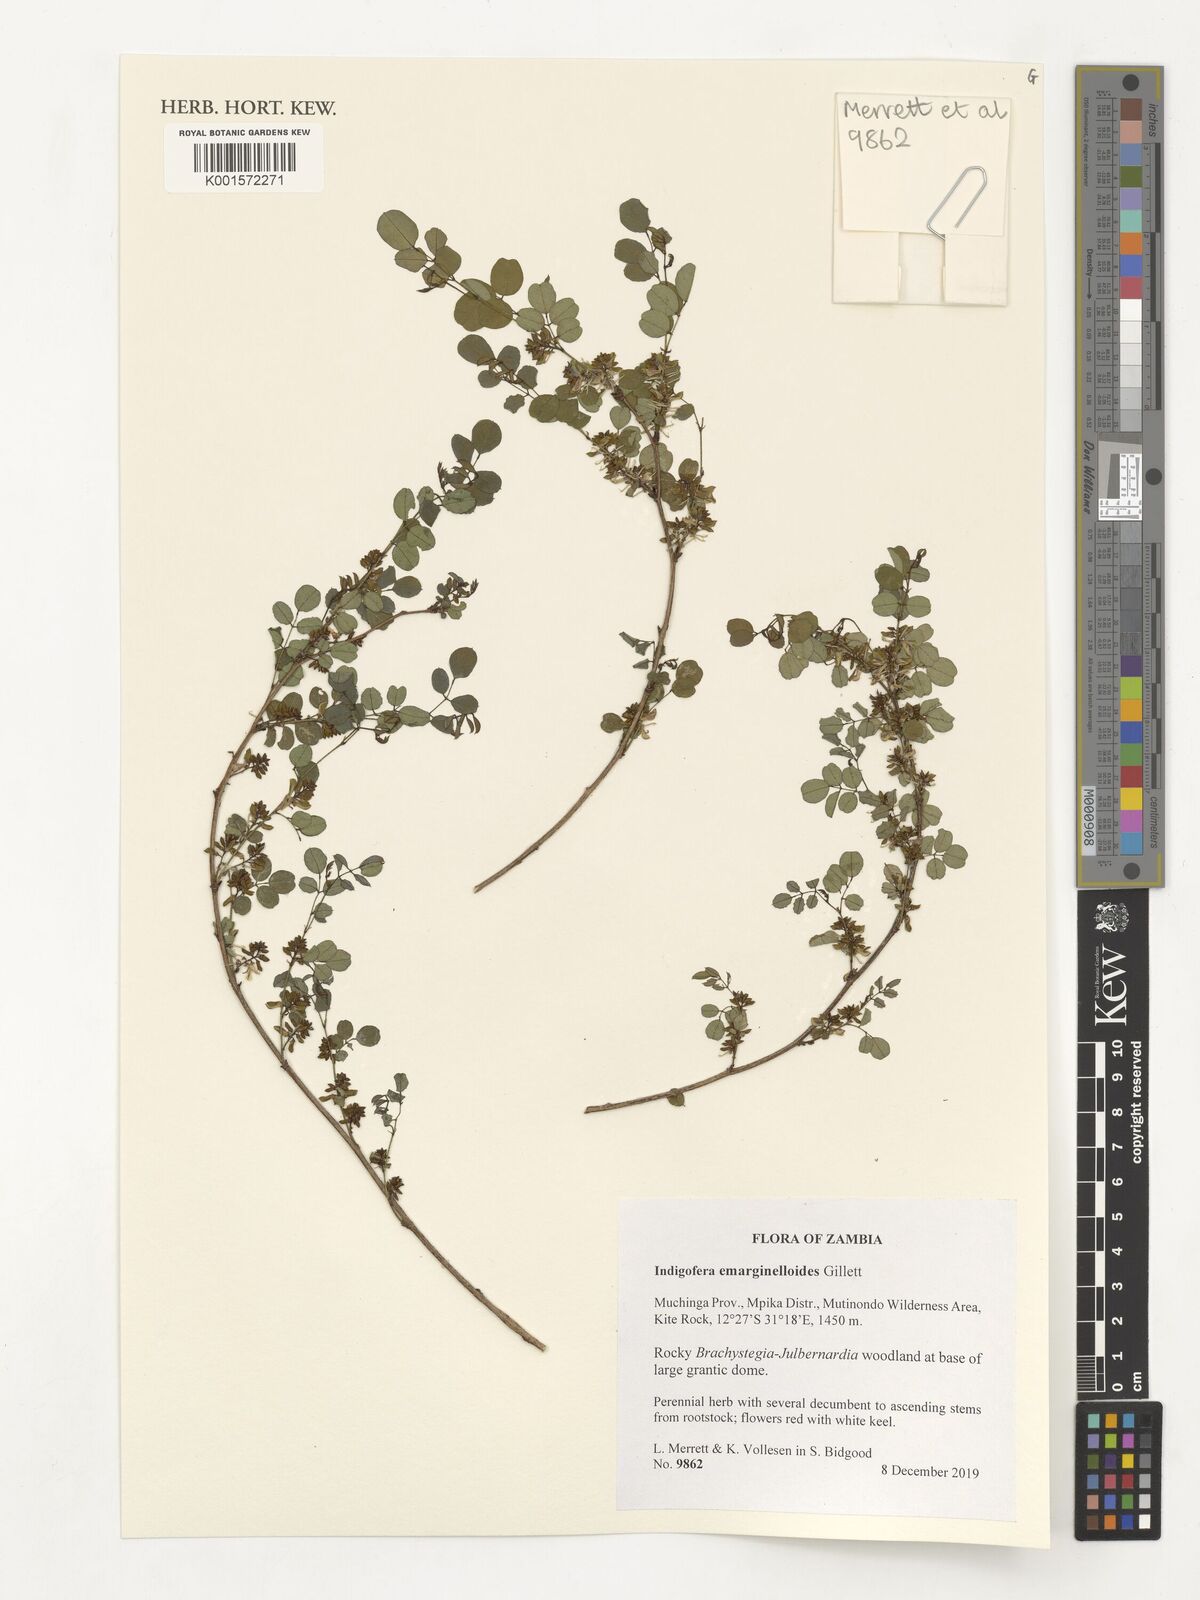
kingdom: Plantae
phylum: Tracheophyta
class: Magnoliopsida
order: Fabales
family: Fabaceae
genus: Indigofera
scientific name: Indigofera emarginelloides
